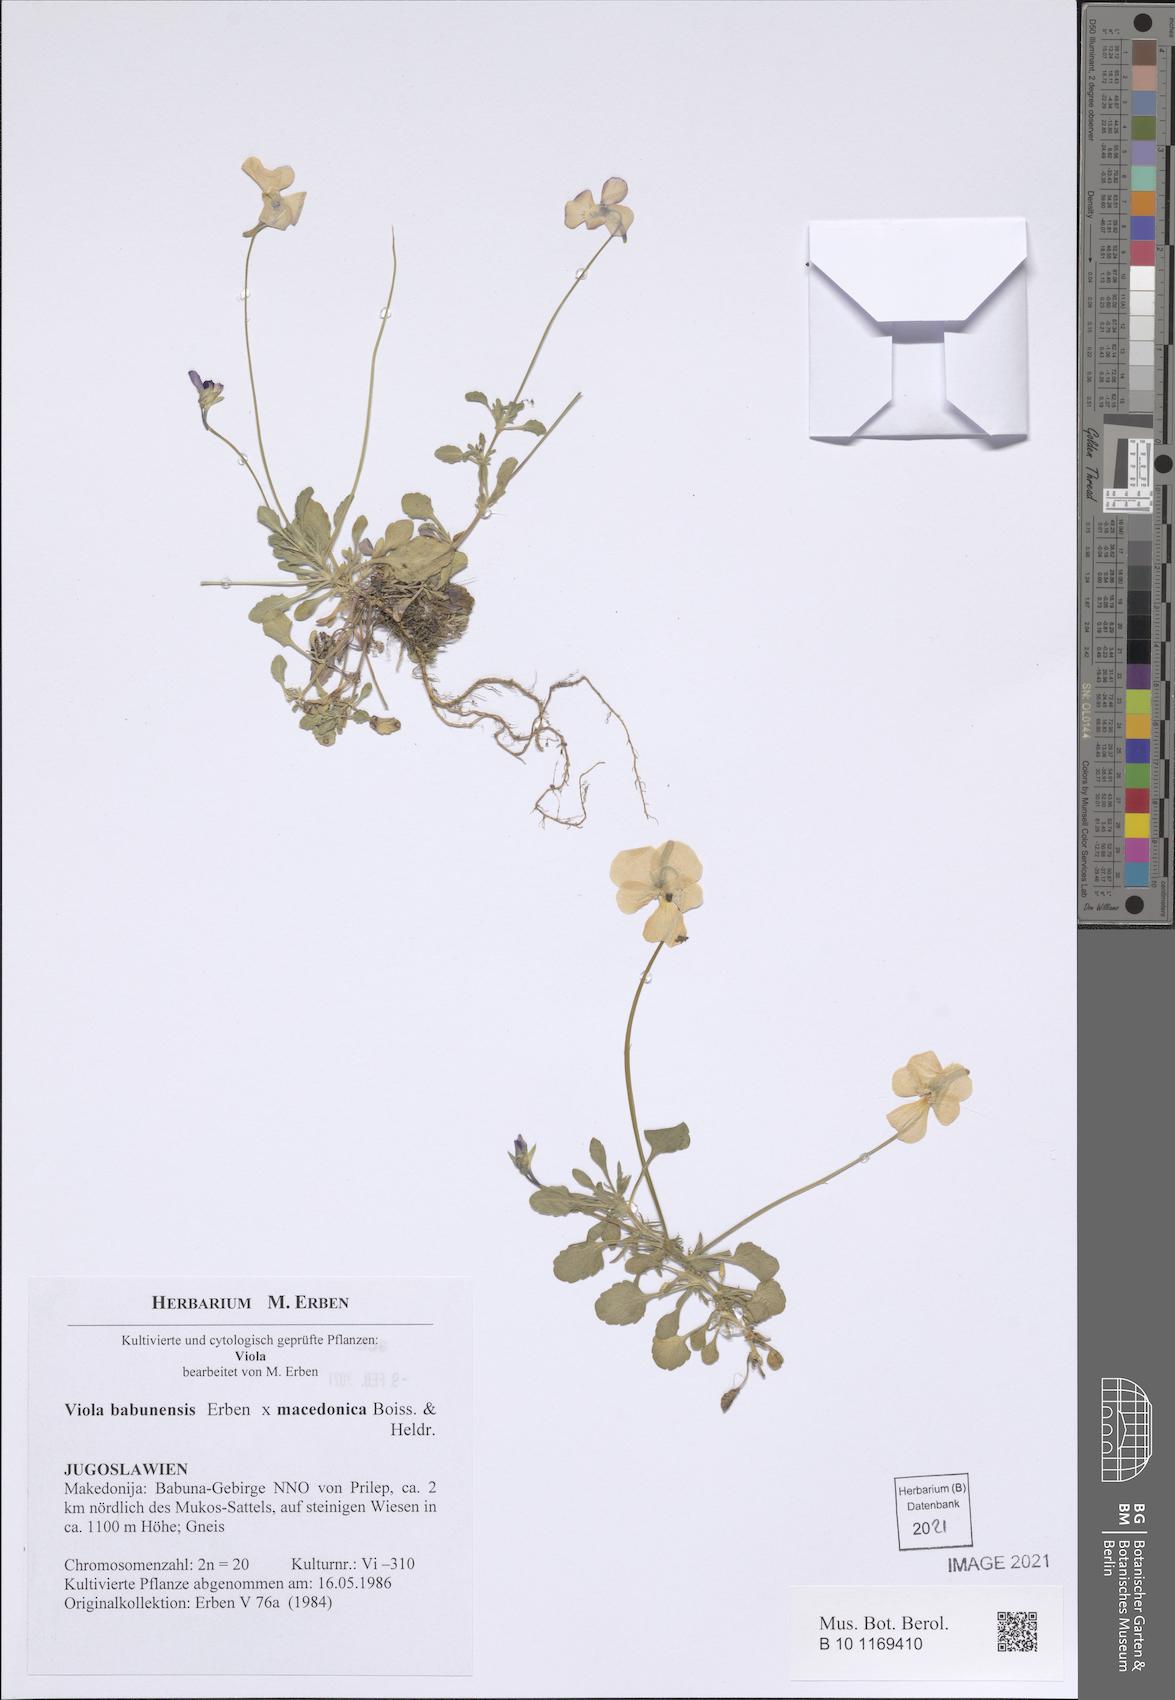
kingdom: Plantae
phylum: Tracheophyta
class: Magnoliopsida
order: Malpighiales
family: Violaceae
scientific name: Violaceae
